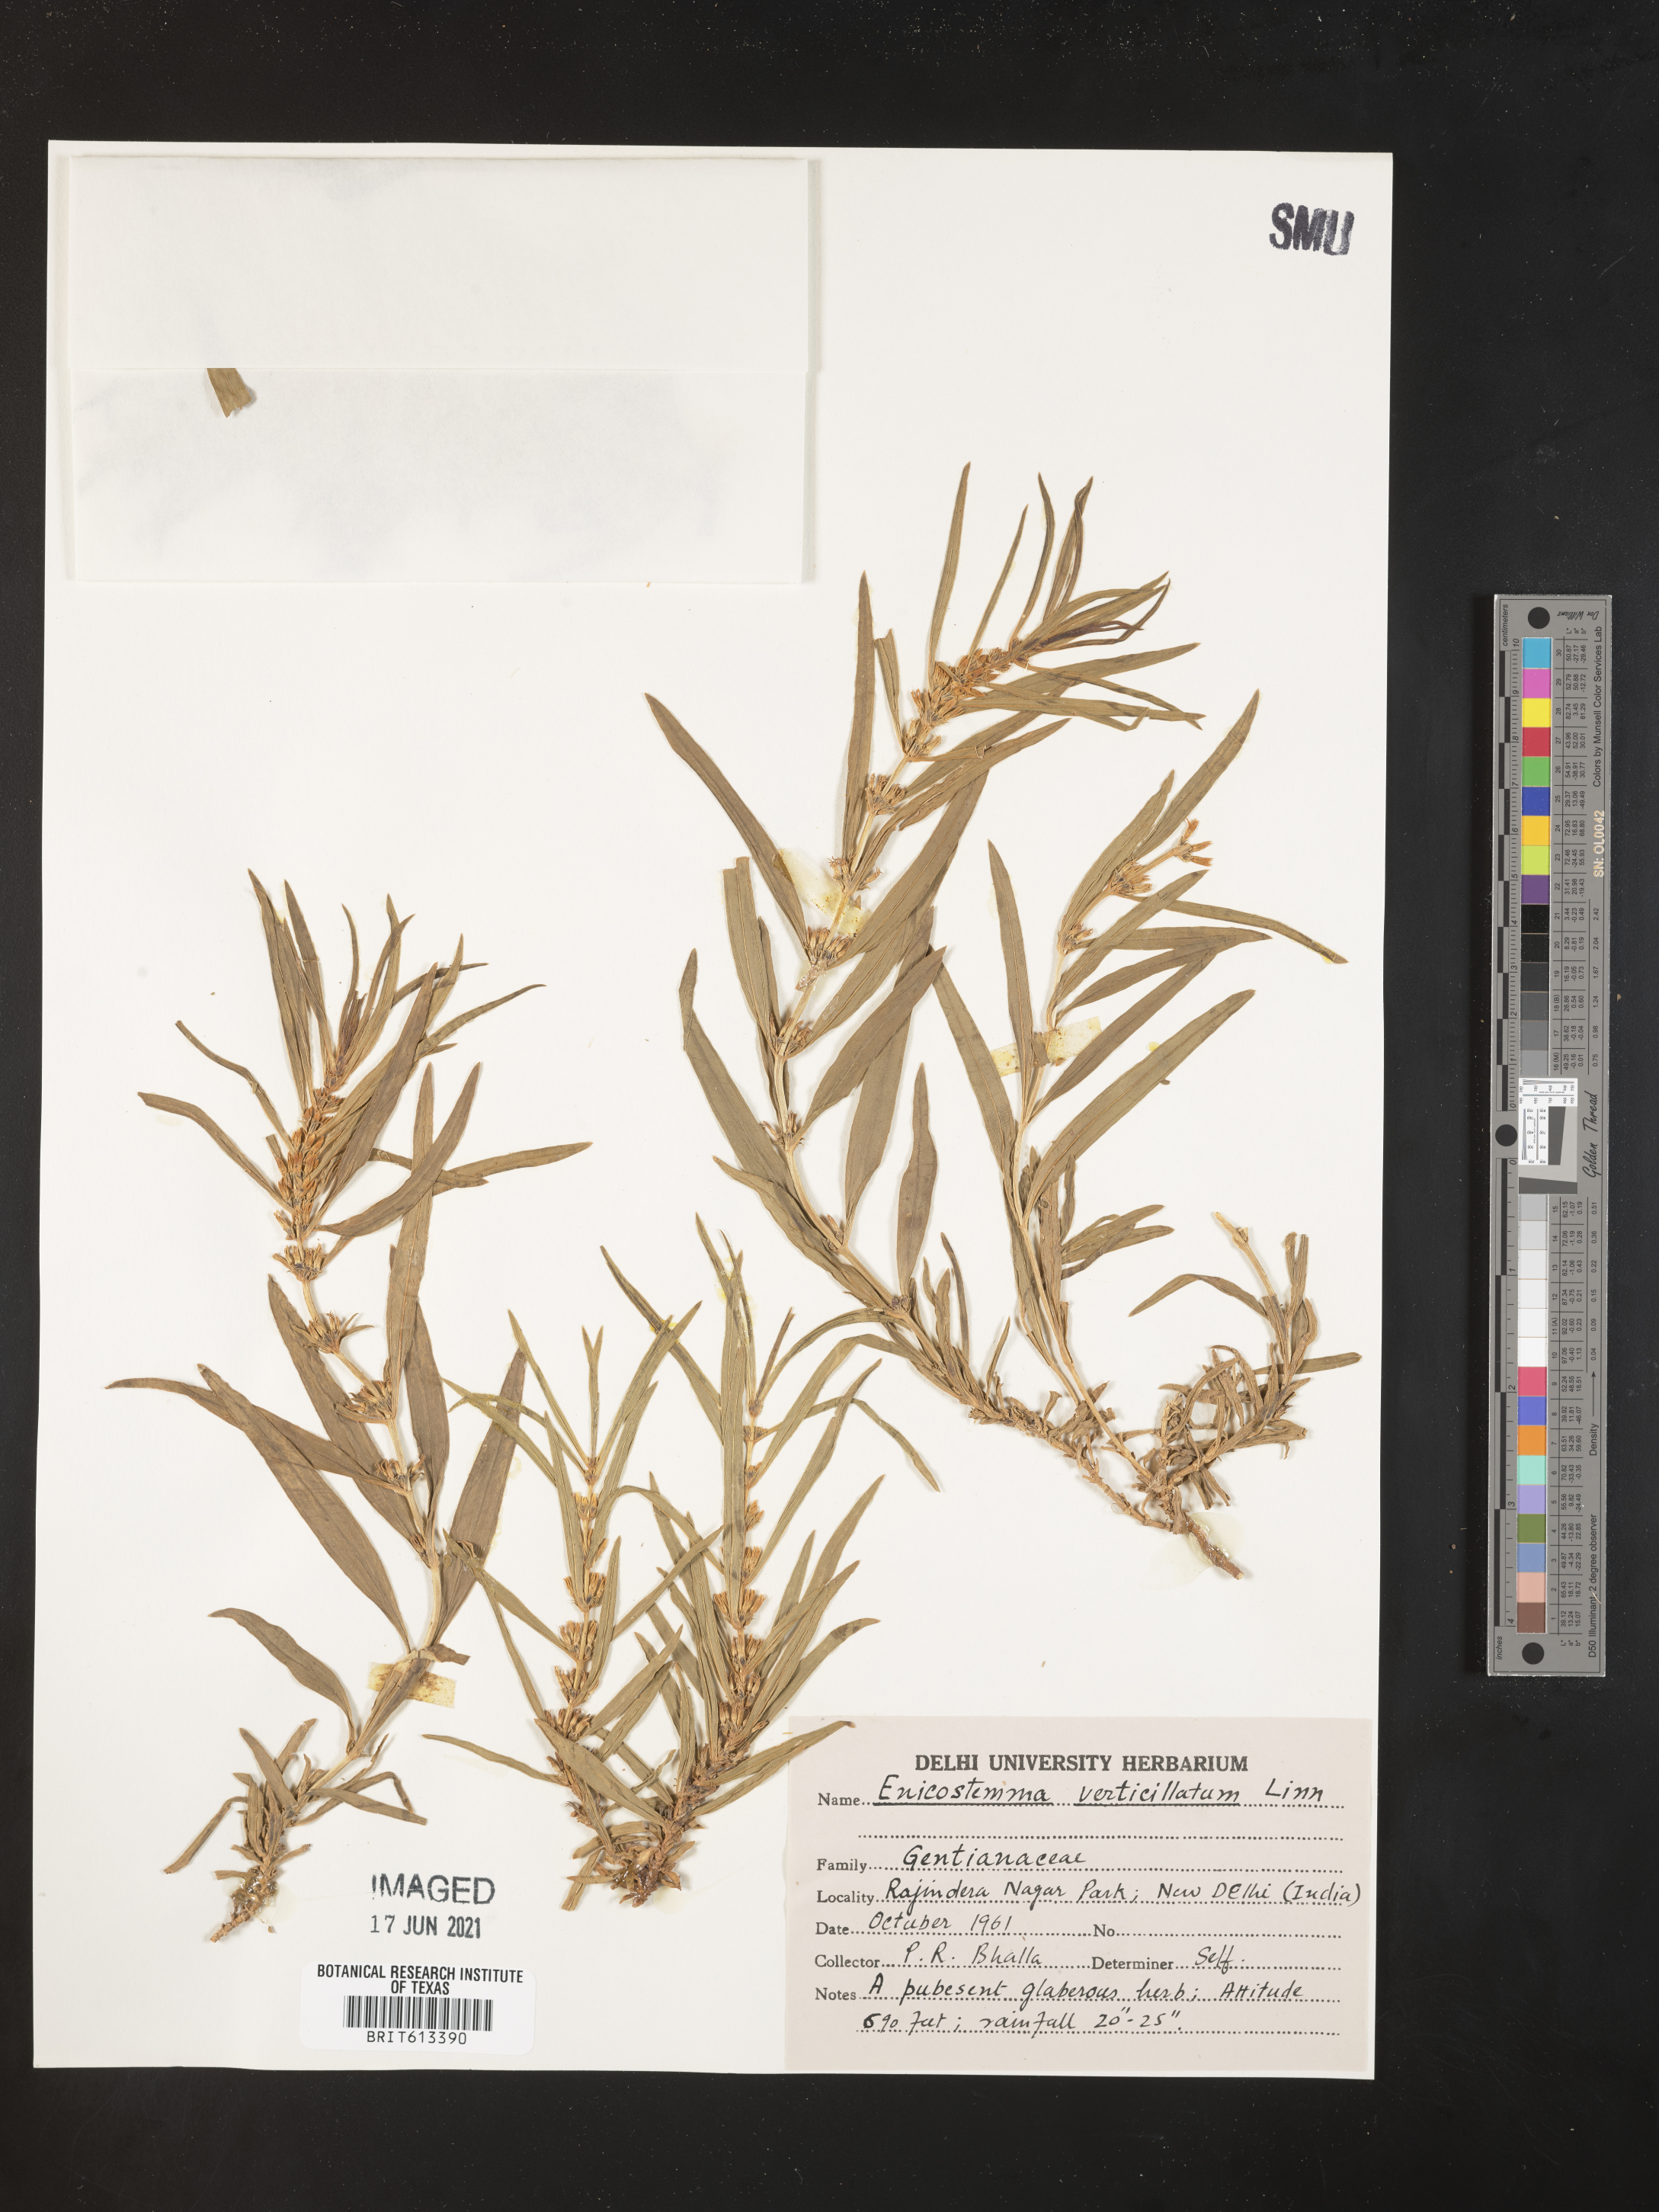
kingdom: Plantae
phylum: Tracheophyta
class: Magnoliopsida
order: Gentianales
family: Gentianaceae
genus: Enicostema
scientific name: Enicostema verticillatum
